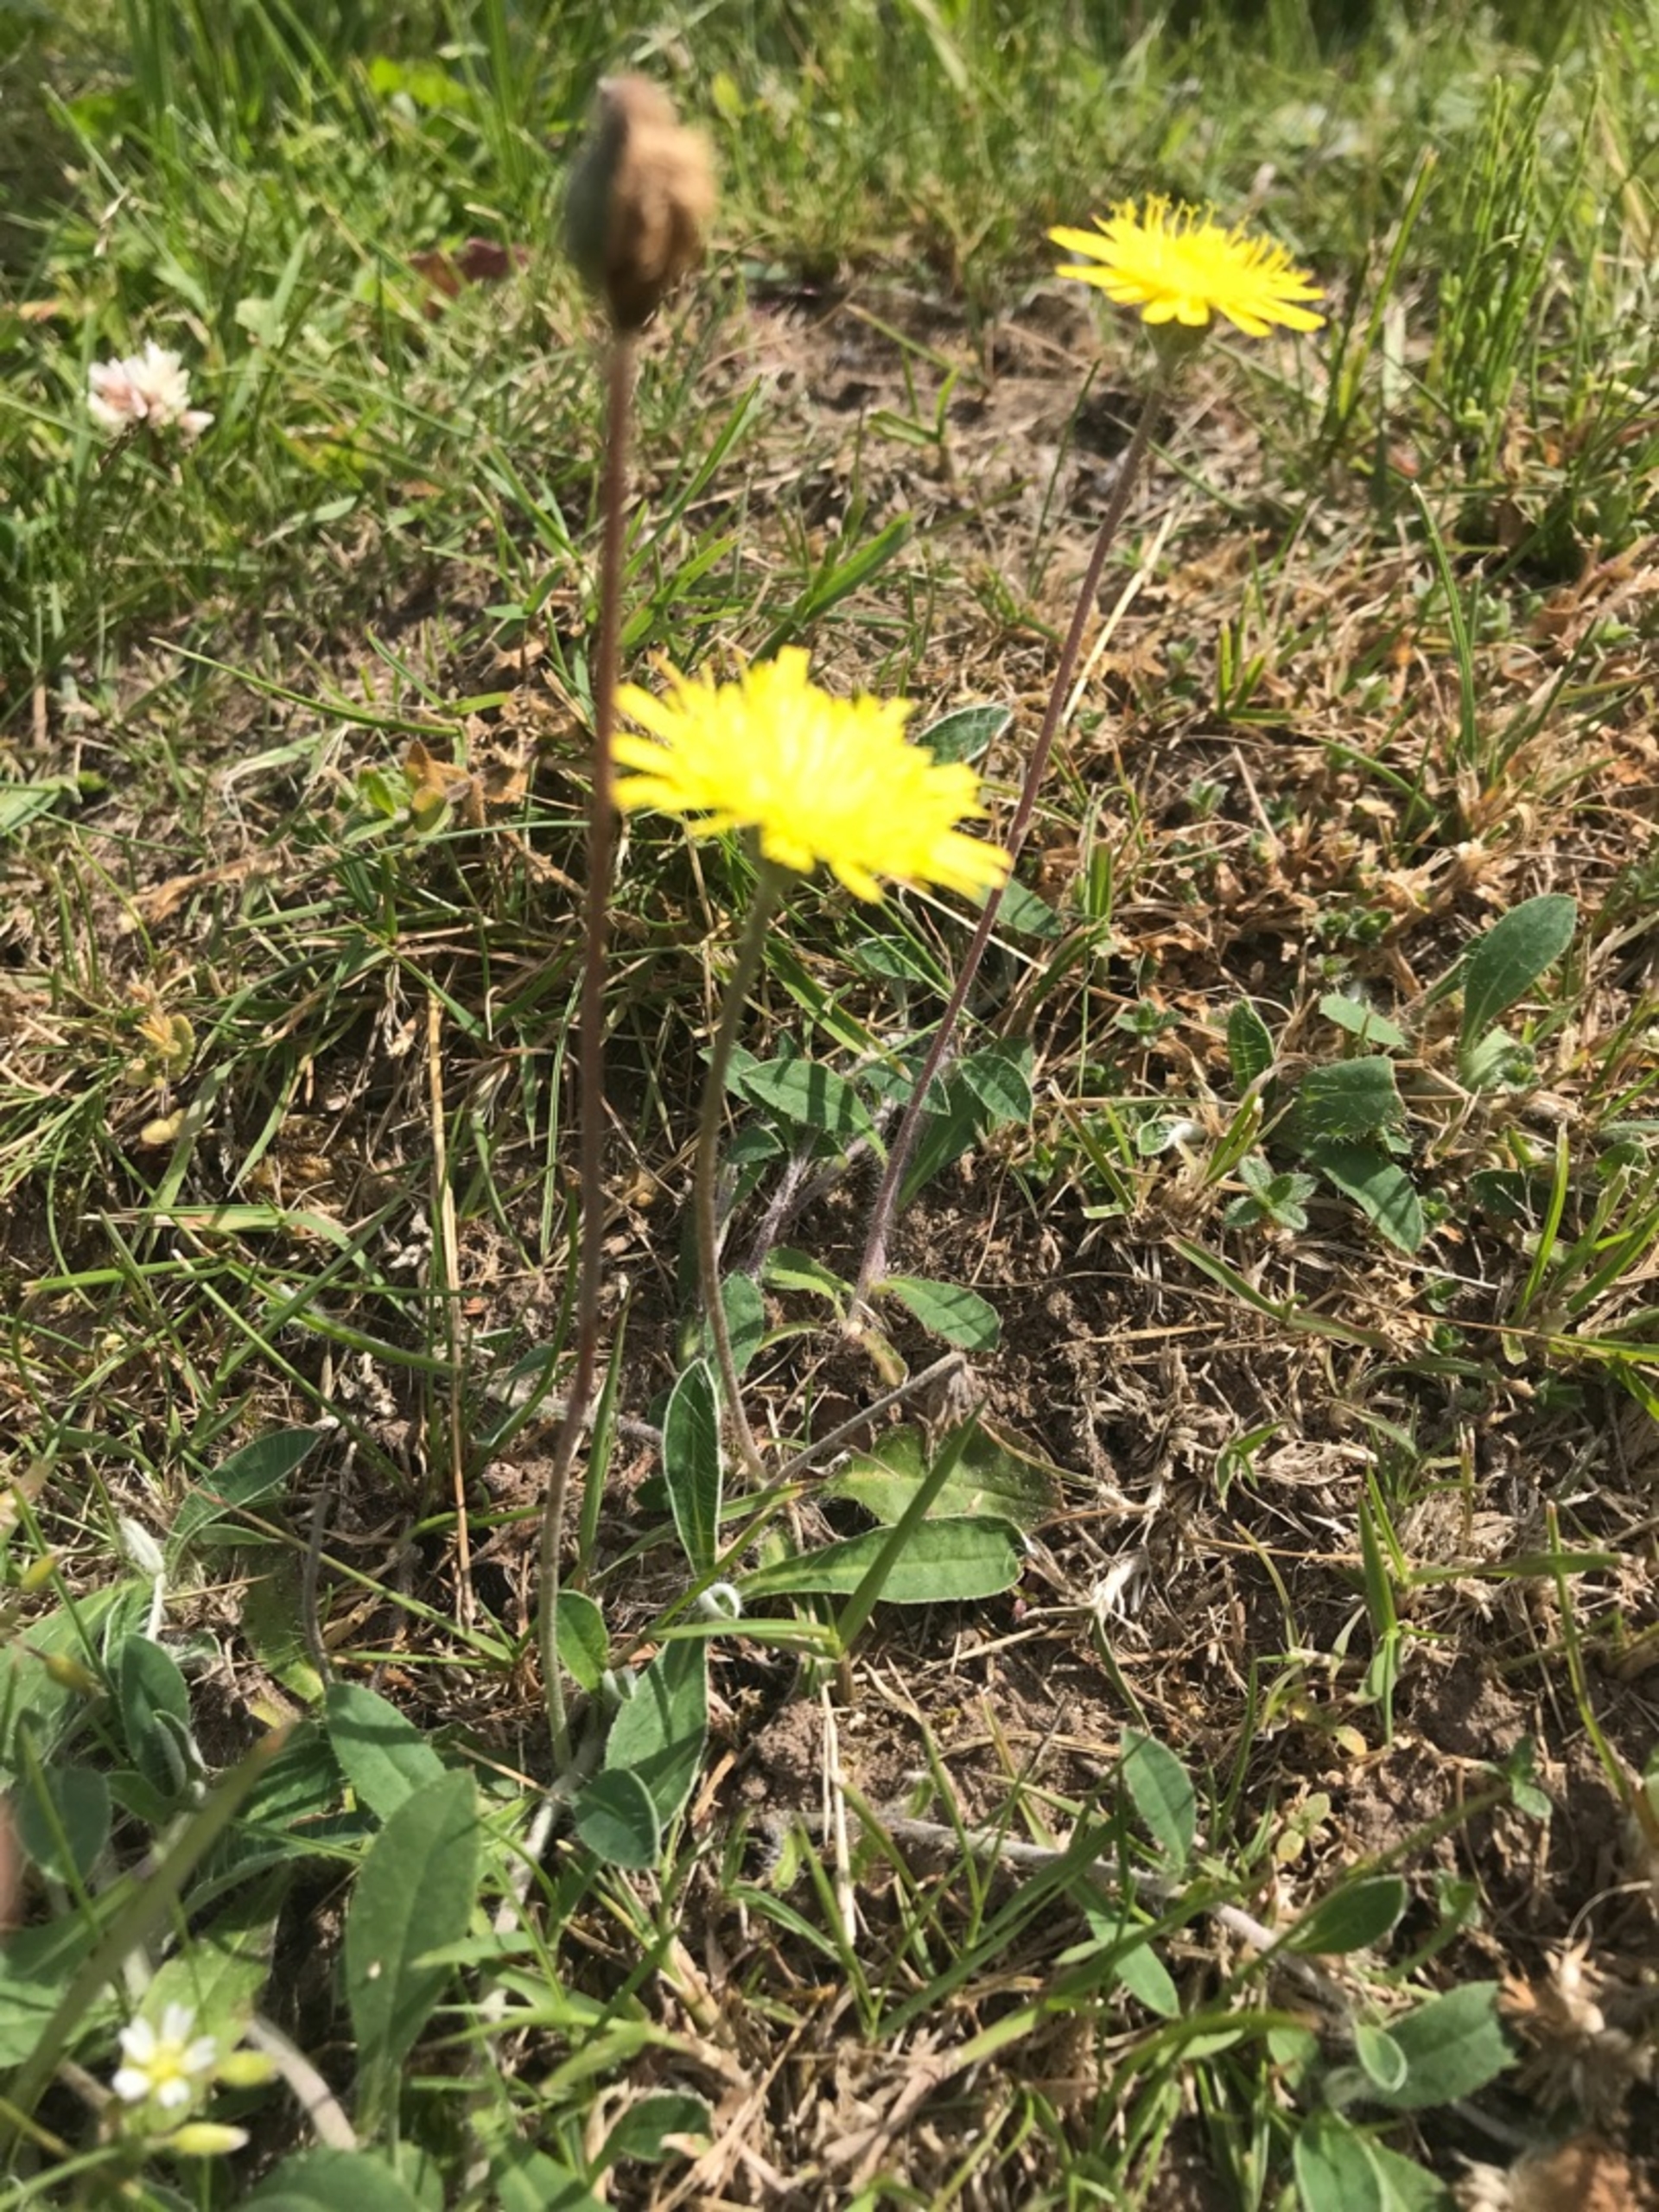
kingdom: Plantae
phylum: Tracheophyta
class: Magnoliopsida
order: Asterales
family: Asteraceae
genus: Pilosella
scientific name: Pilosella officinarum
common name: Håret høgeurt
